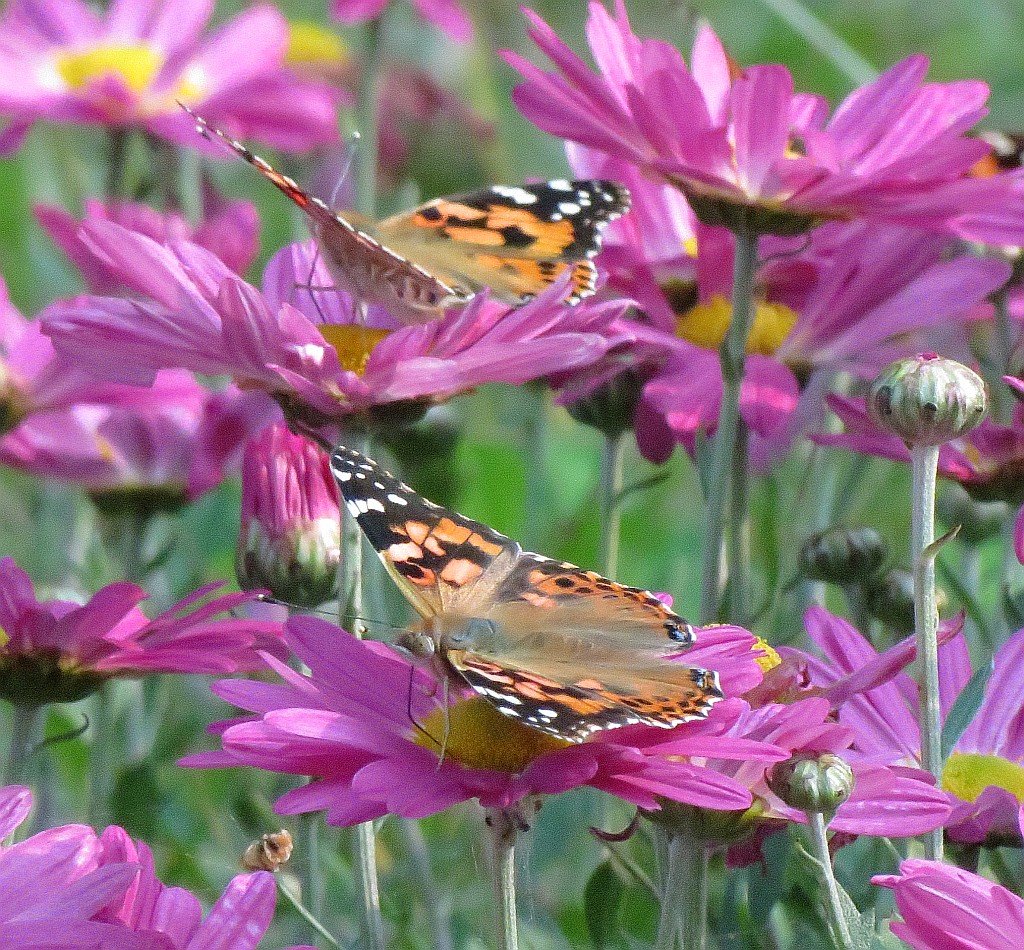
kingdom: Animalia
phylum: Arthropoda
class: Insecta
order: Lepidoptera
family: Nymphalidae
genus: Vanessa
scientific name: Vanessa cardui
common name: Painted Lady
